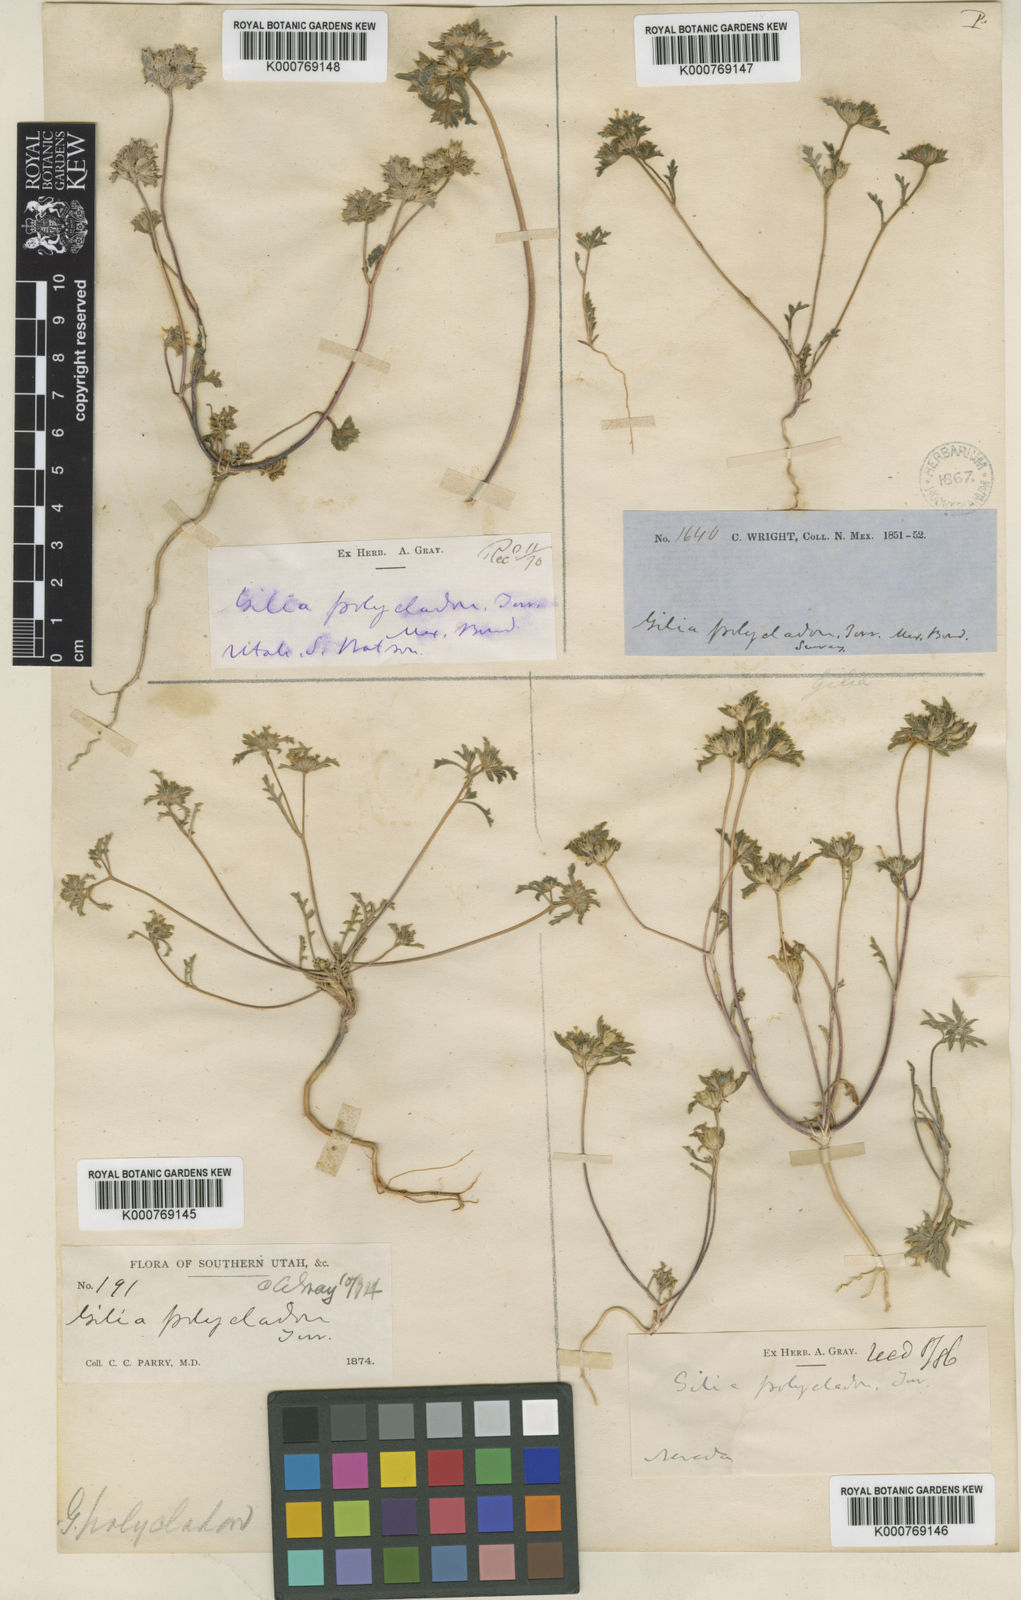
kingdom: Plantae
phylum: Tracheophyta
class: Magnoliopsida
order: Ericales
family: Polemoniaceae
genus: Ipomopsis
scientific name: Ipomopsis polycladon
